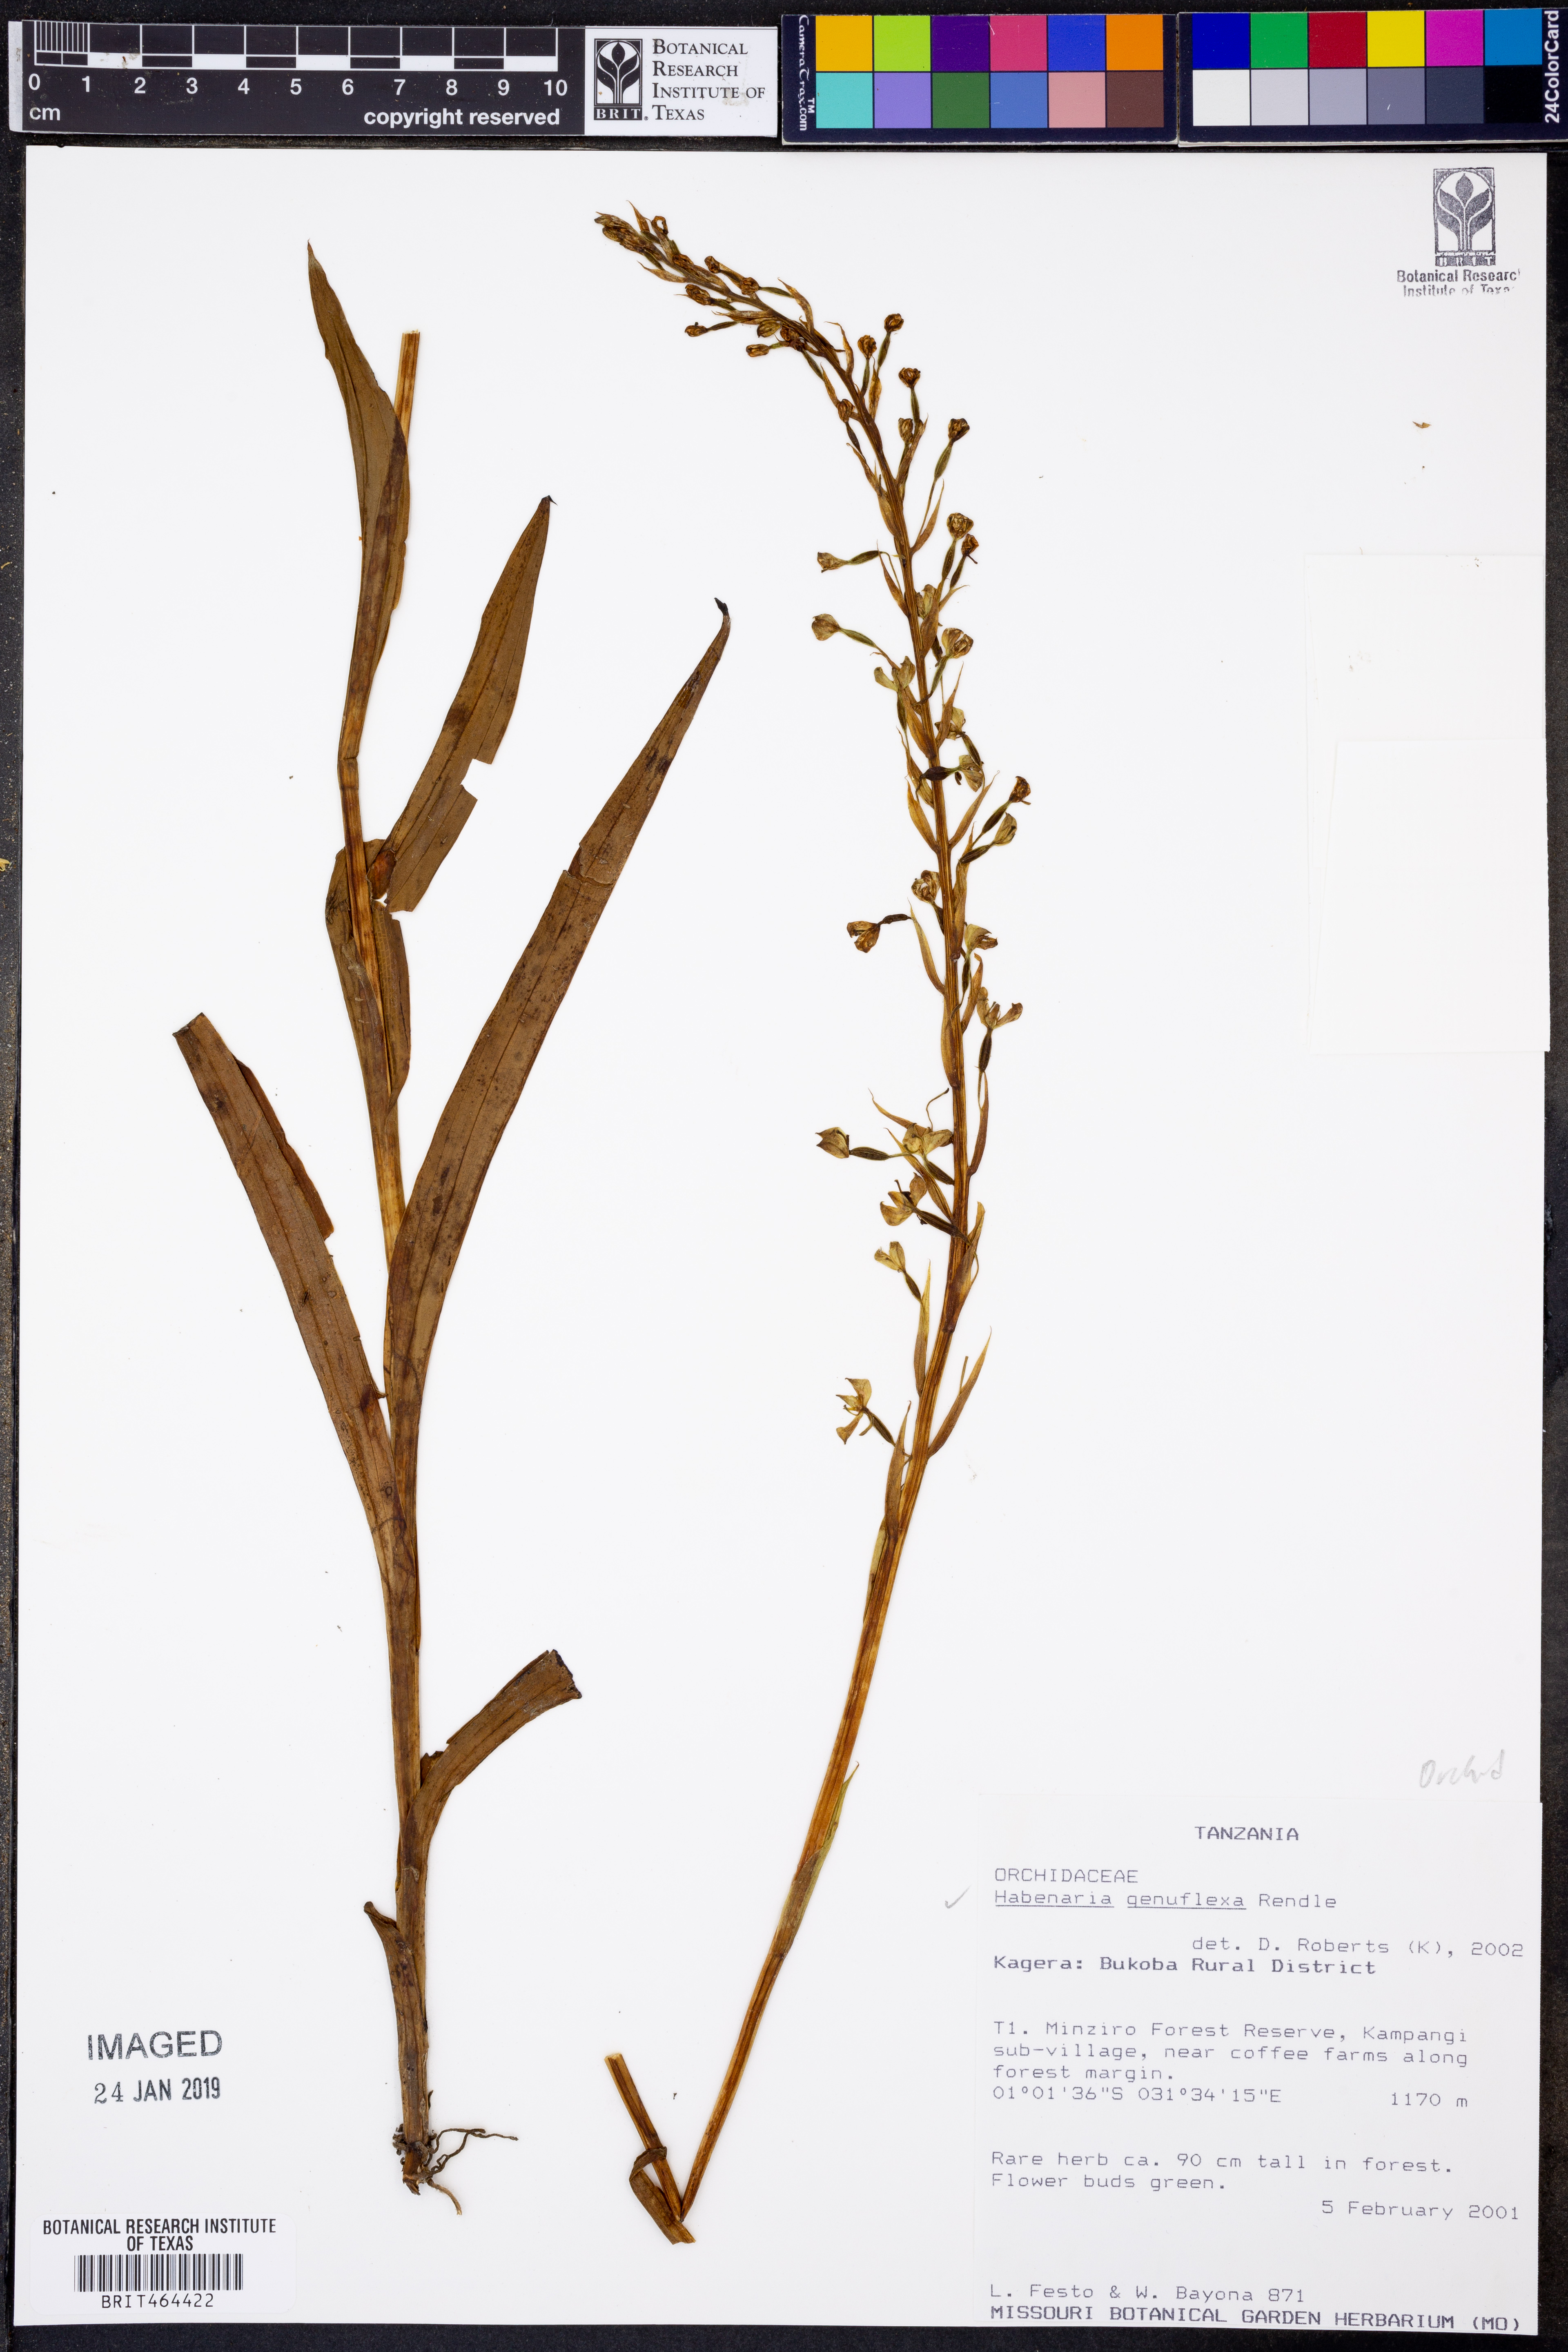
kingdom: Plantae
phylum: Tracheophyta
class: Liliopsida
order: Asparagales
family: Orchidaceae
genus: Habenaria
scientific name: Habenaria genuflexa
